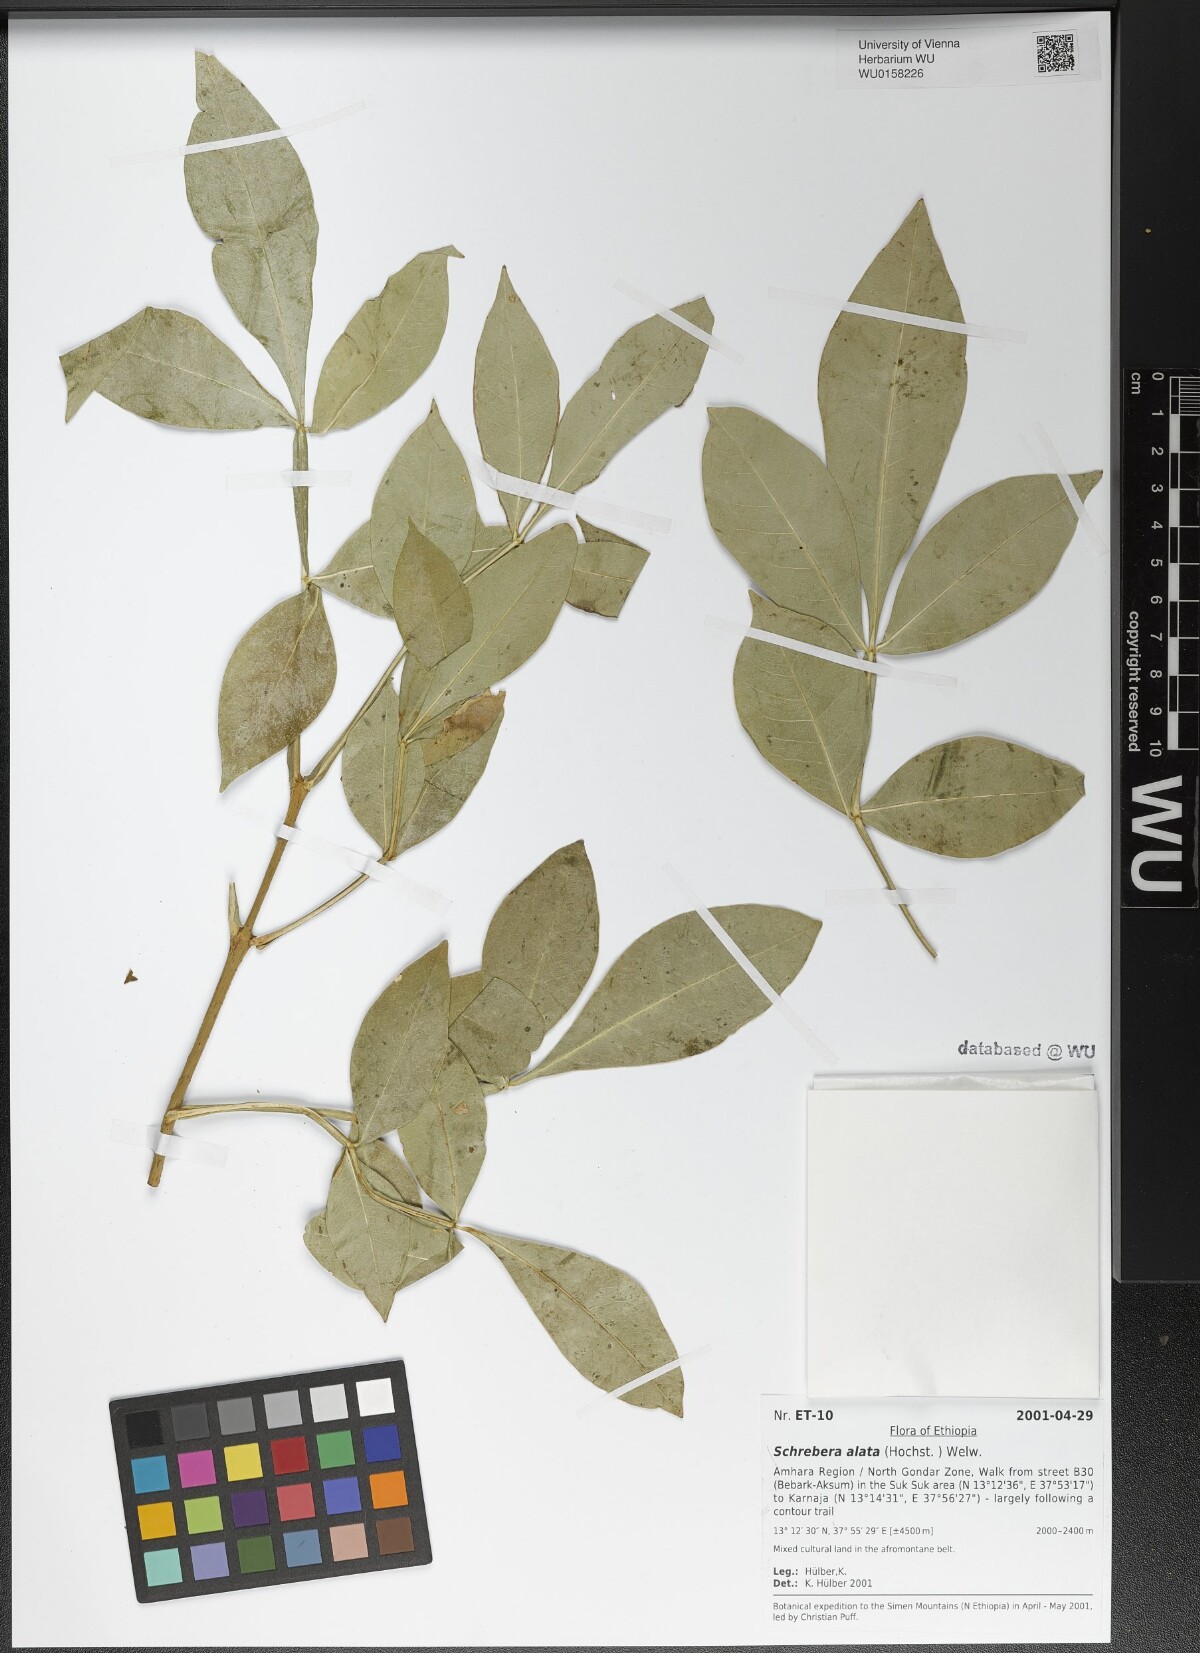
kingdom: Plantae
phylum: Tracheophyta
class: Magnoliopsida
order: Lamiales
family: Oleaceae
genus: Schrebera
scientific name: Schrebera alata
